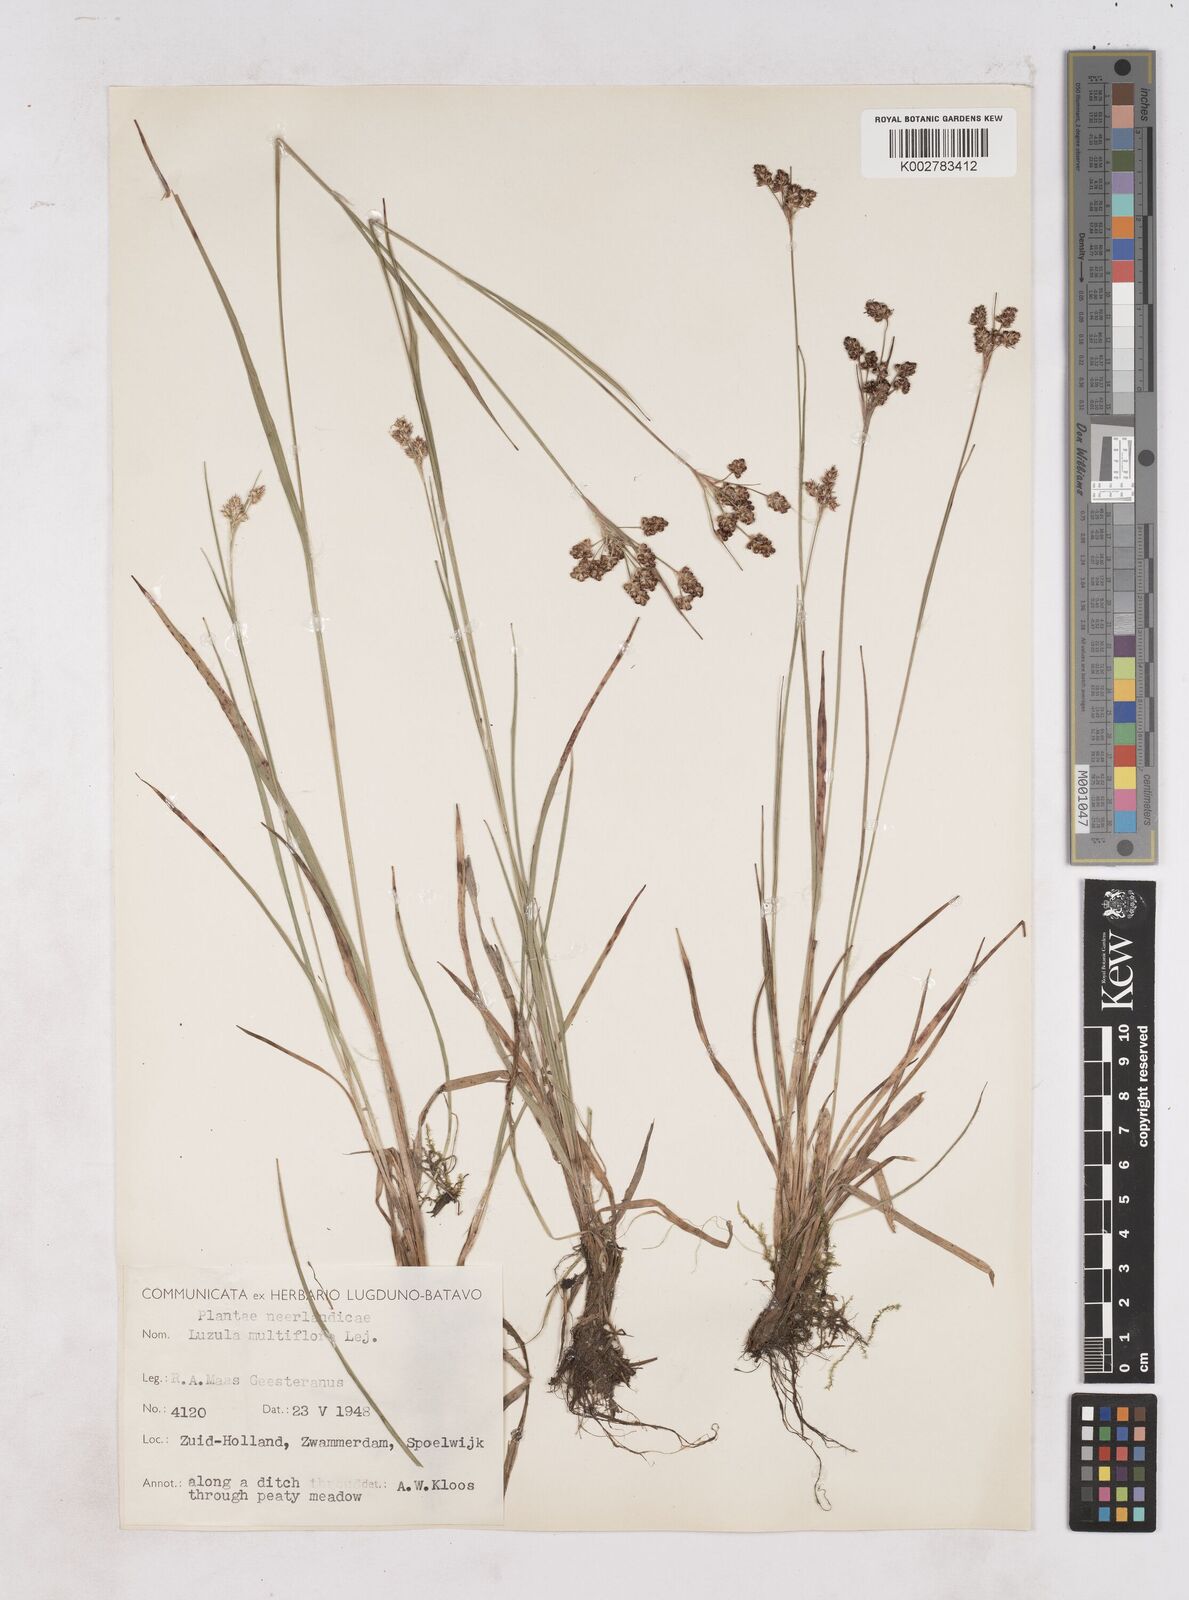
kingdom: Plantae
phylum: Tracheophyta
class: Liliopsida
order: Poales
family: Juncaceae
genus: Luzula
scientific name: Luzula multiflora
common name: Heath wood-rush
